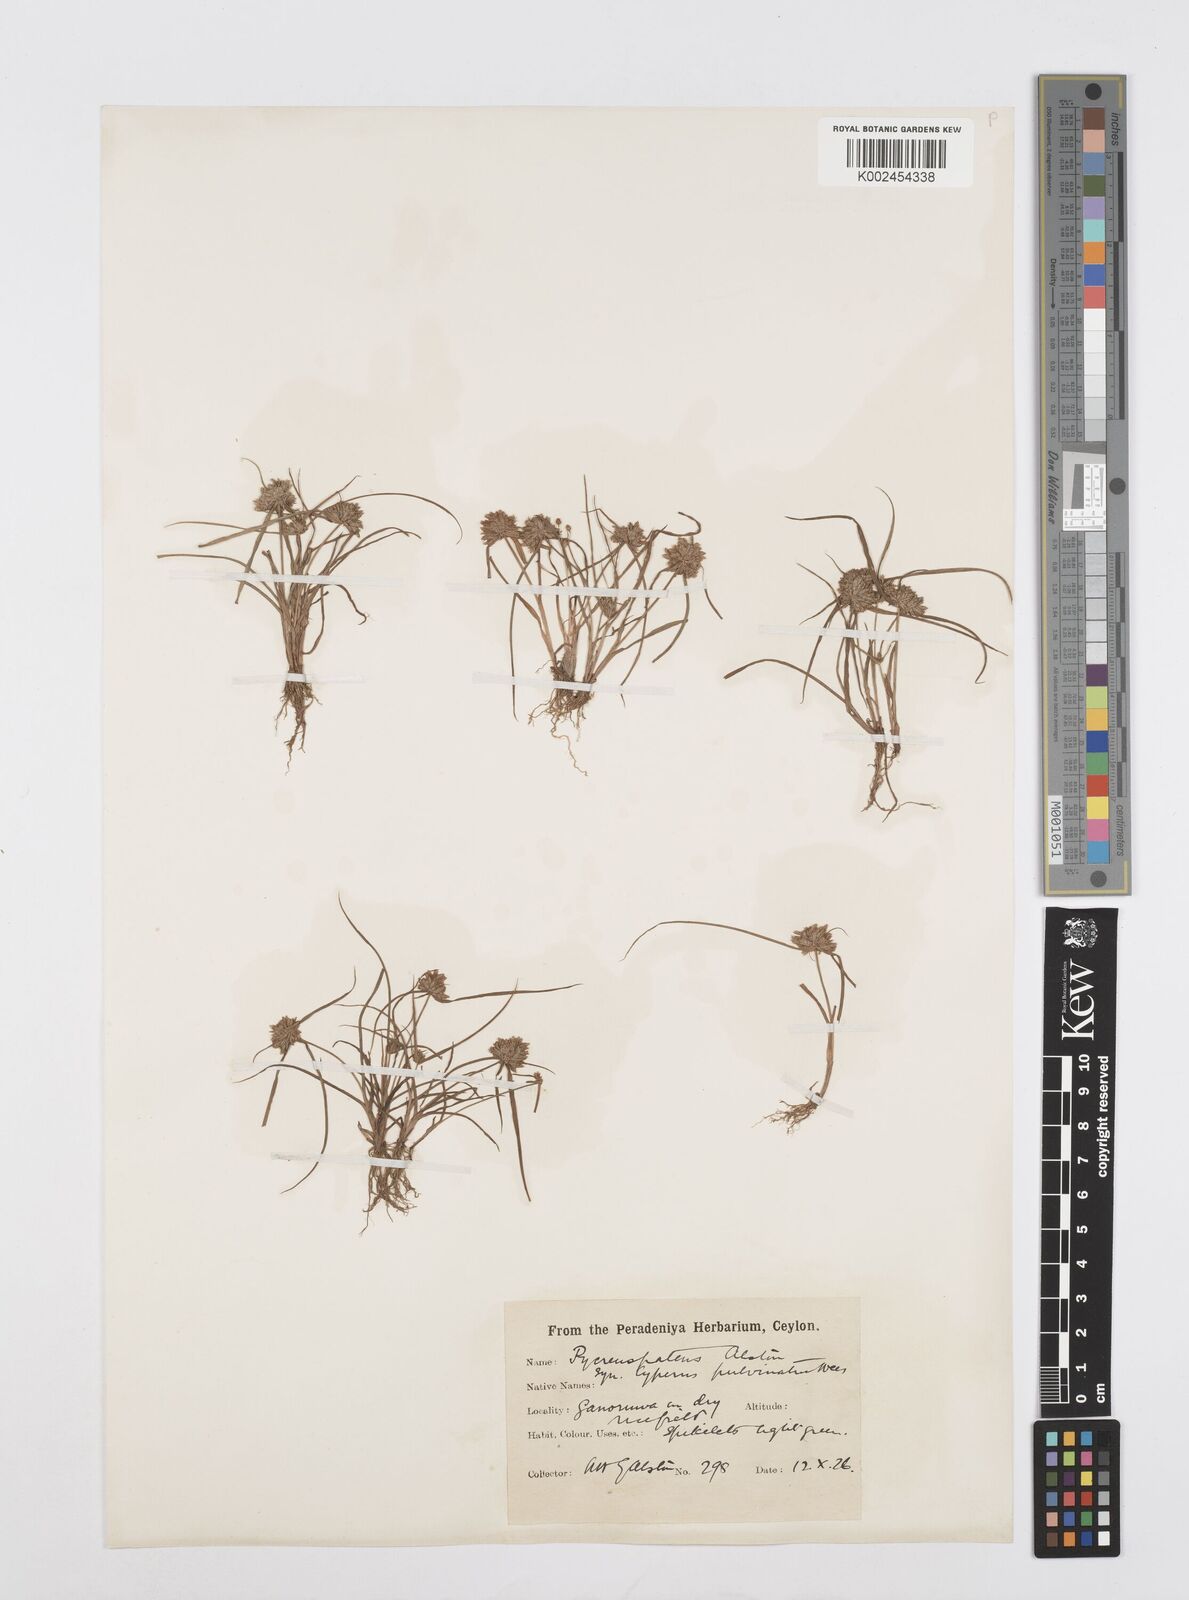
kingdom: Plantae
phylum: Tracheophyta
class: Liliopsida
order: Poales
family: Cyperaceae
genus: Cyperus
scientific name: Cyperus pumilus
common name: Low flatsedge
